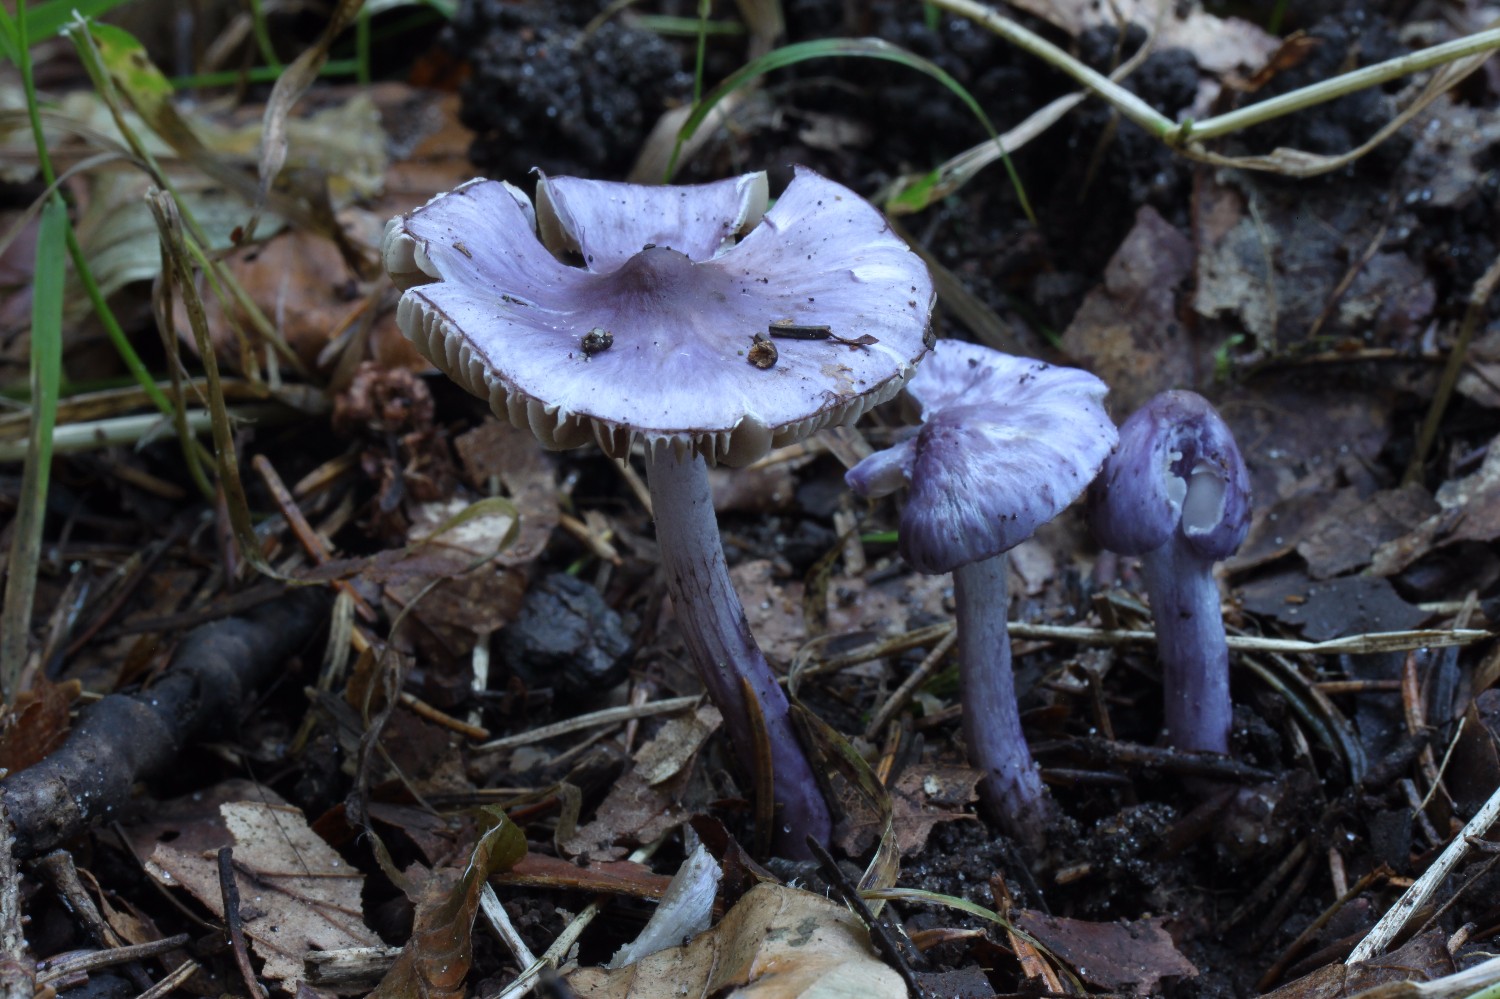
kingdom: Fungi
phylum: Basidiomycota
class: Agaricomycetes
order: Agaricales
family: Inocybaceae
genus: Inocybe
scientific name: Inocybe geophylla
